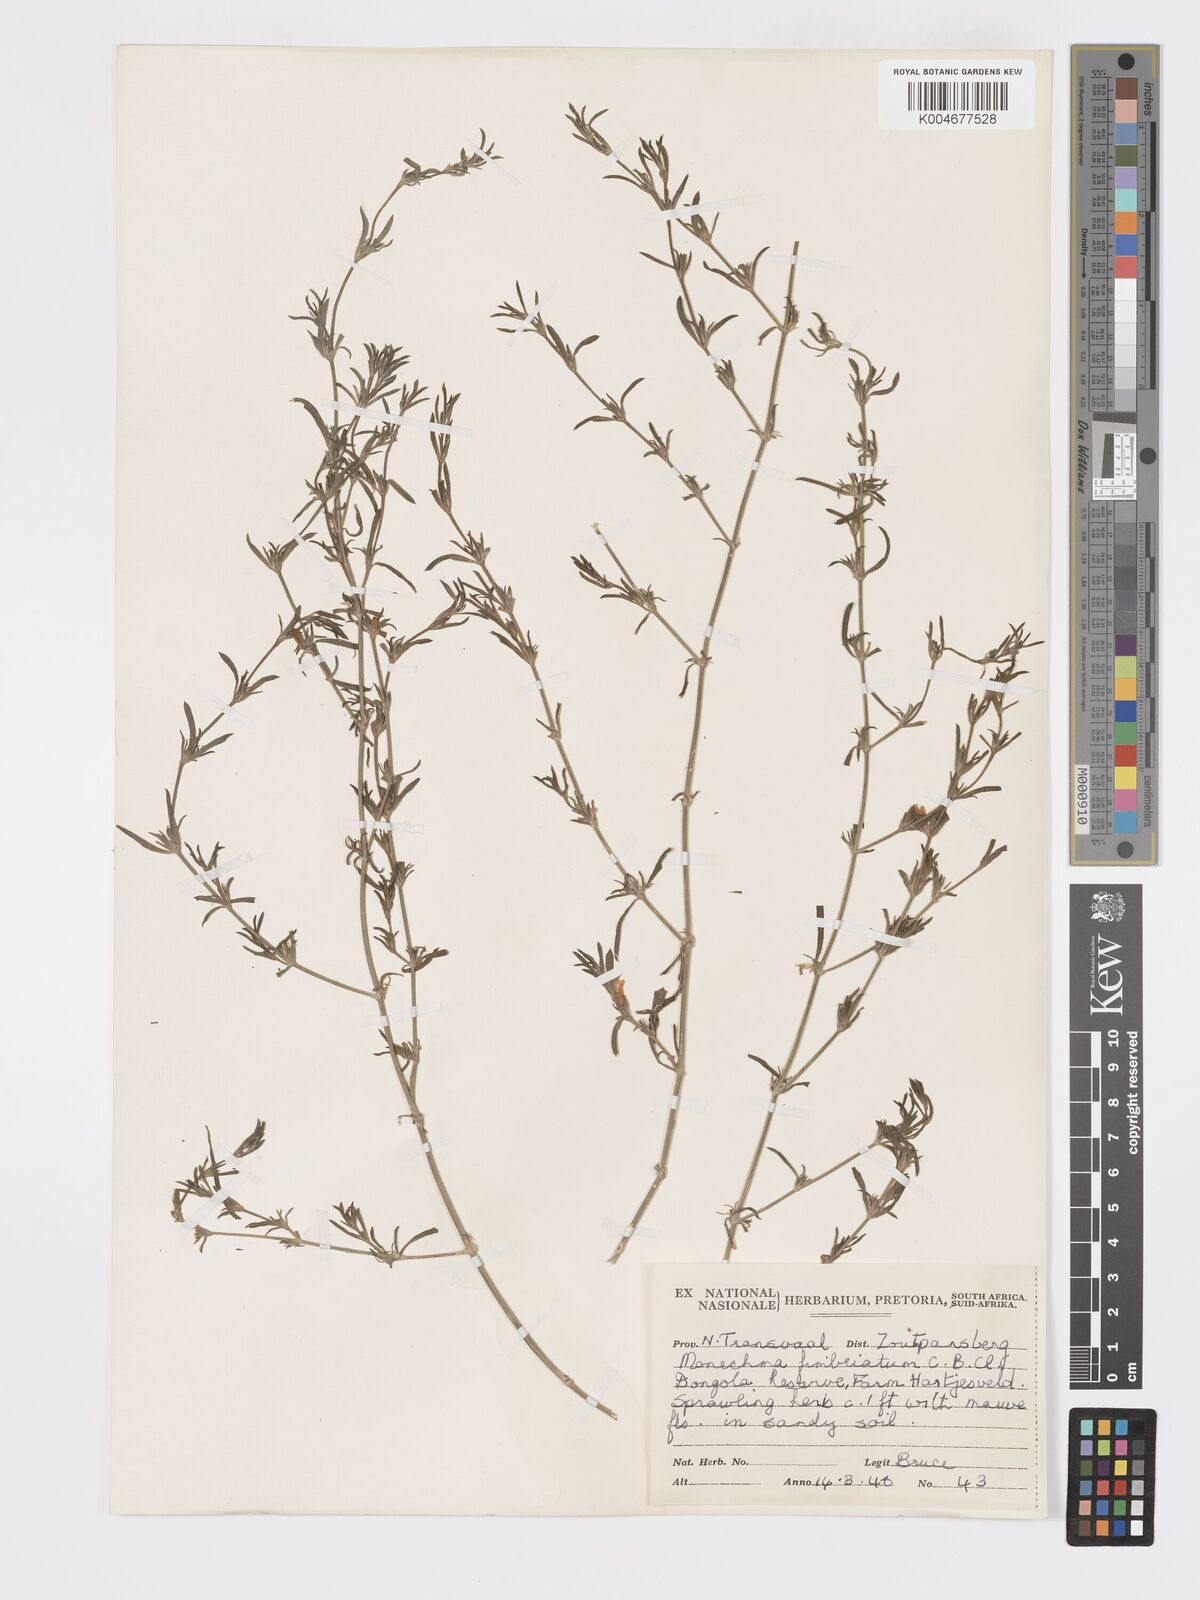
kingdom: Plantae
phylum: Tracheophyta
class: Magnoliopsida
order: Lamiales
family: Acanthaceae
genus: Pogonospermum
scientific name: Pogonospermum
